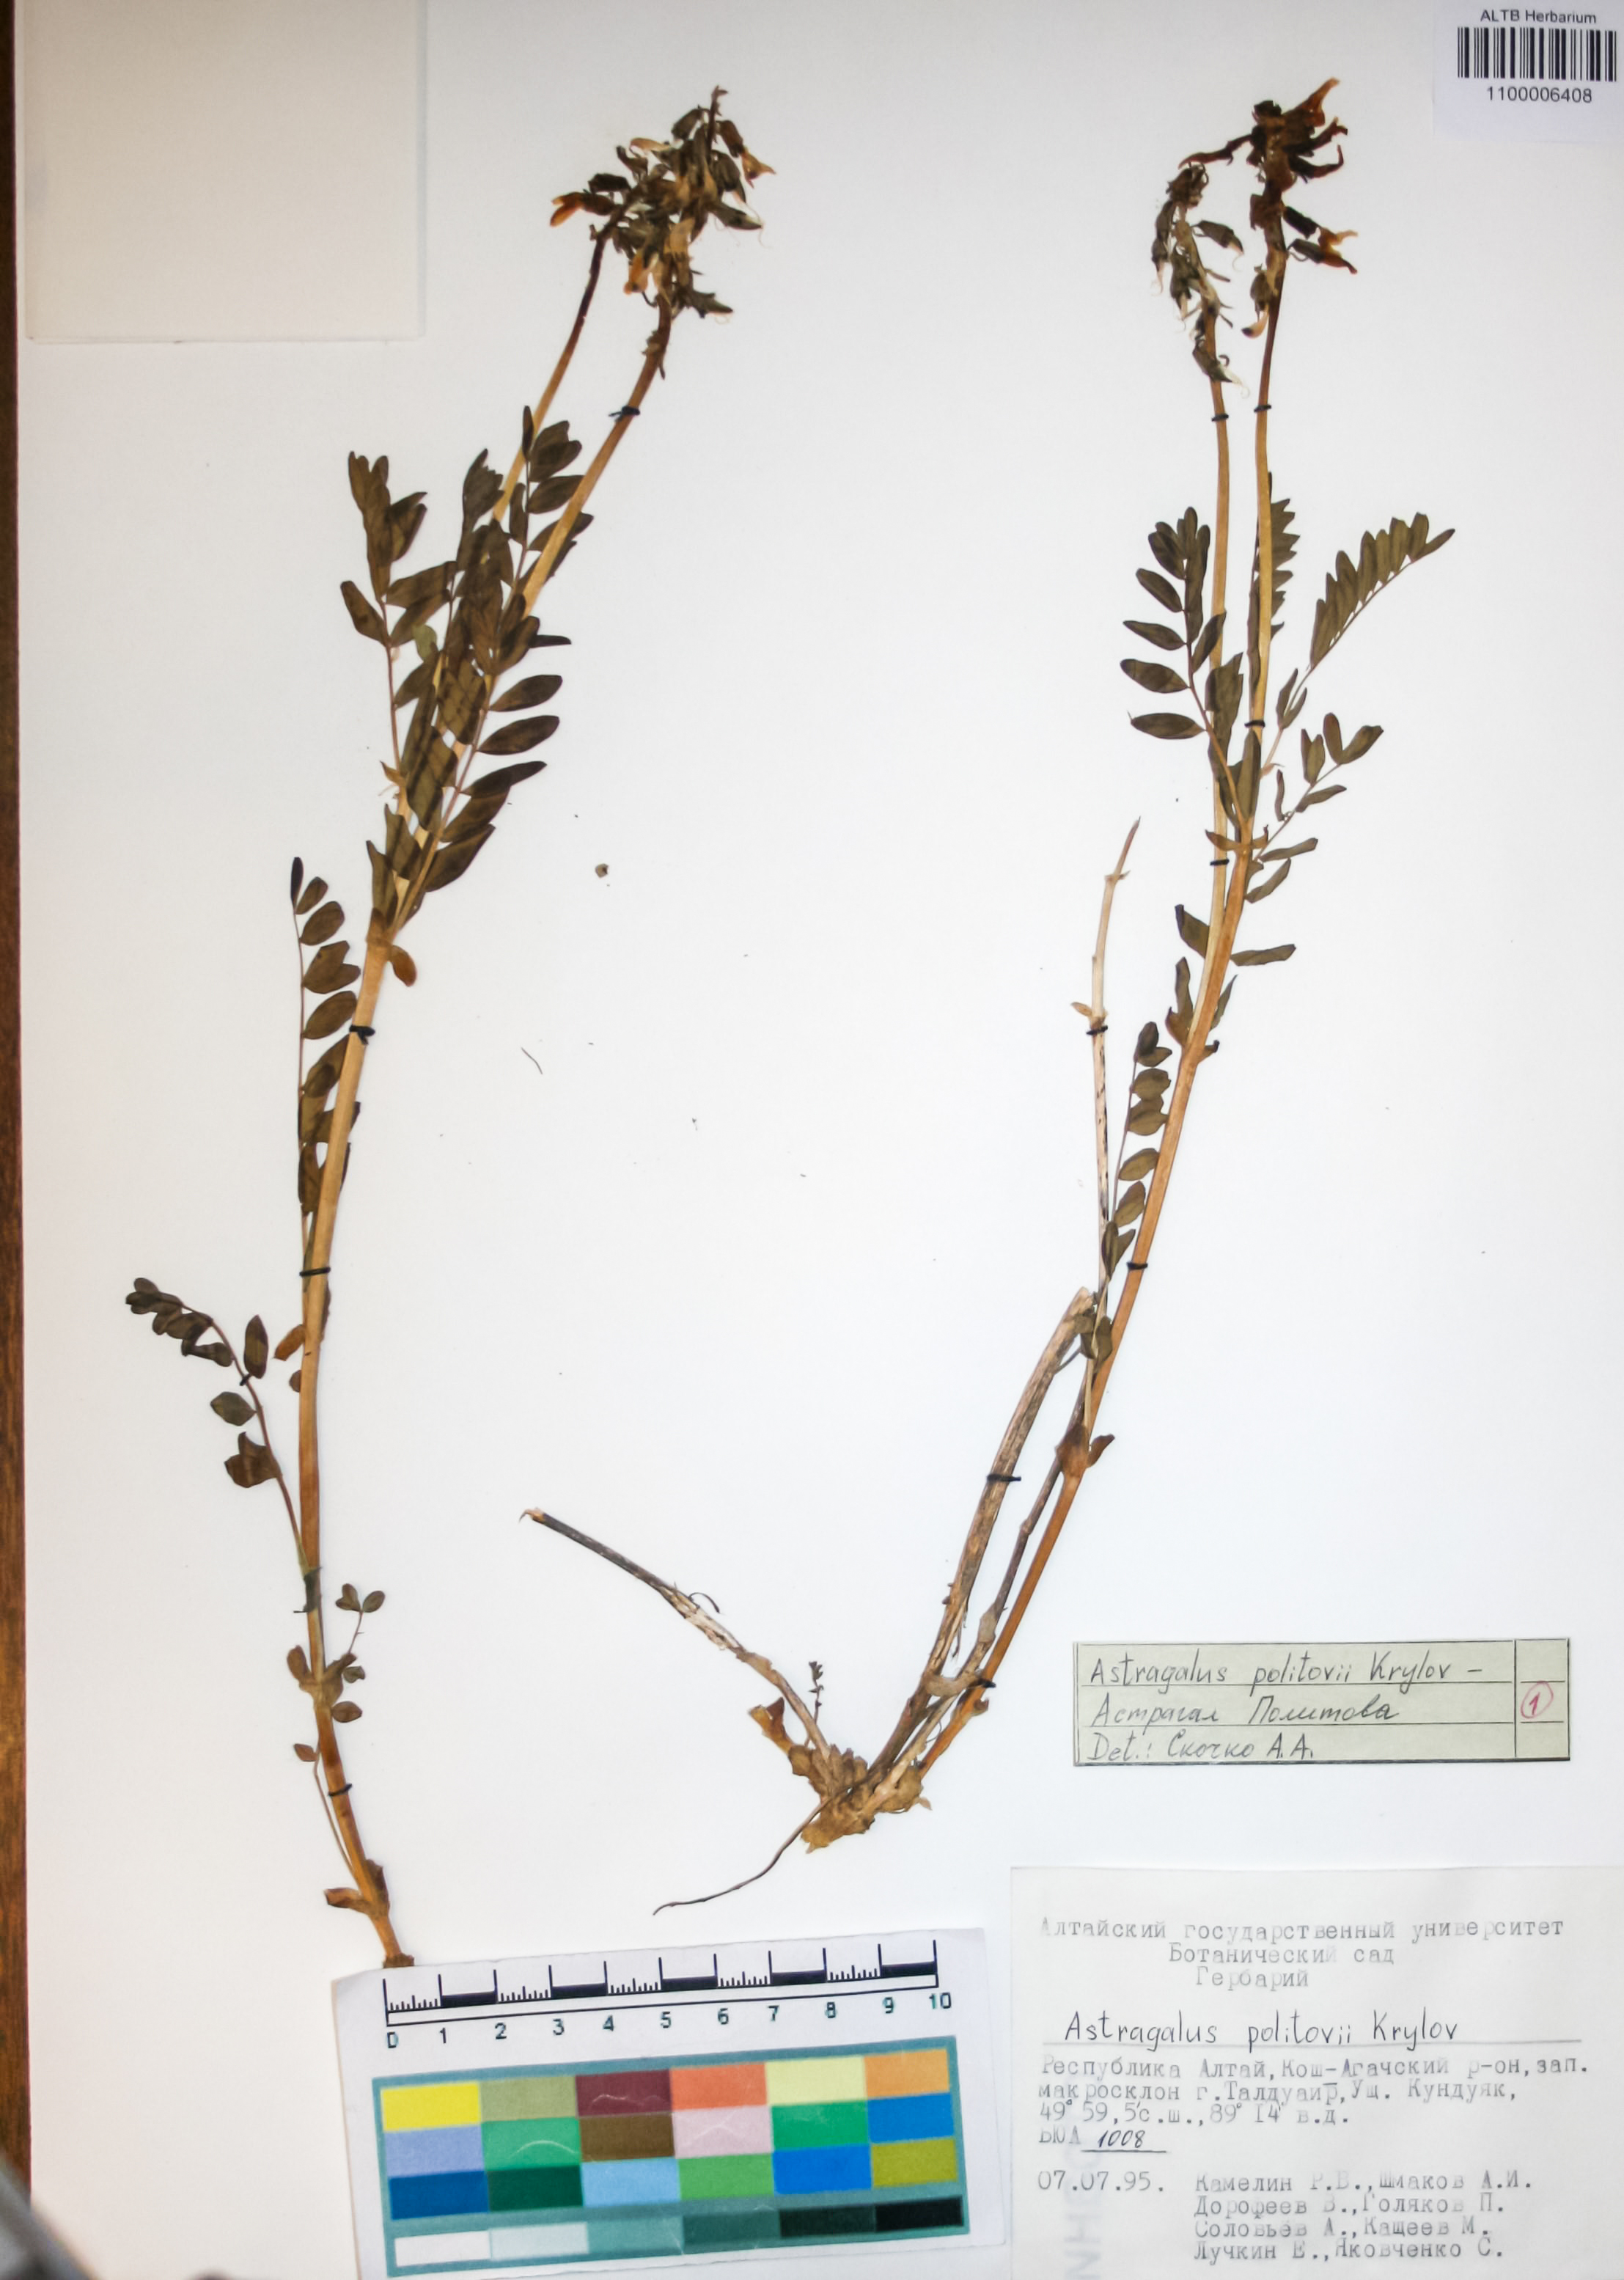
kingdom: Plantae
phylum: Tracheophyta
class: Magnoliopsida
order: Fabales
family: Fabaceae
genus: Astragalus
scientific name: Astragalus politovii
